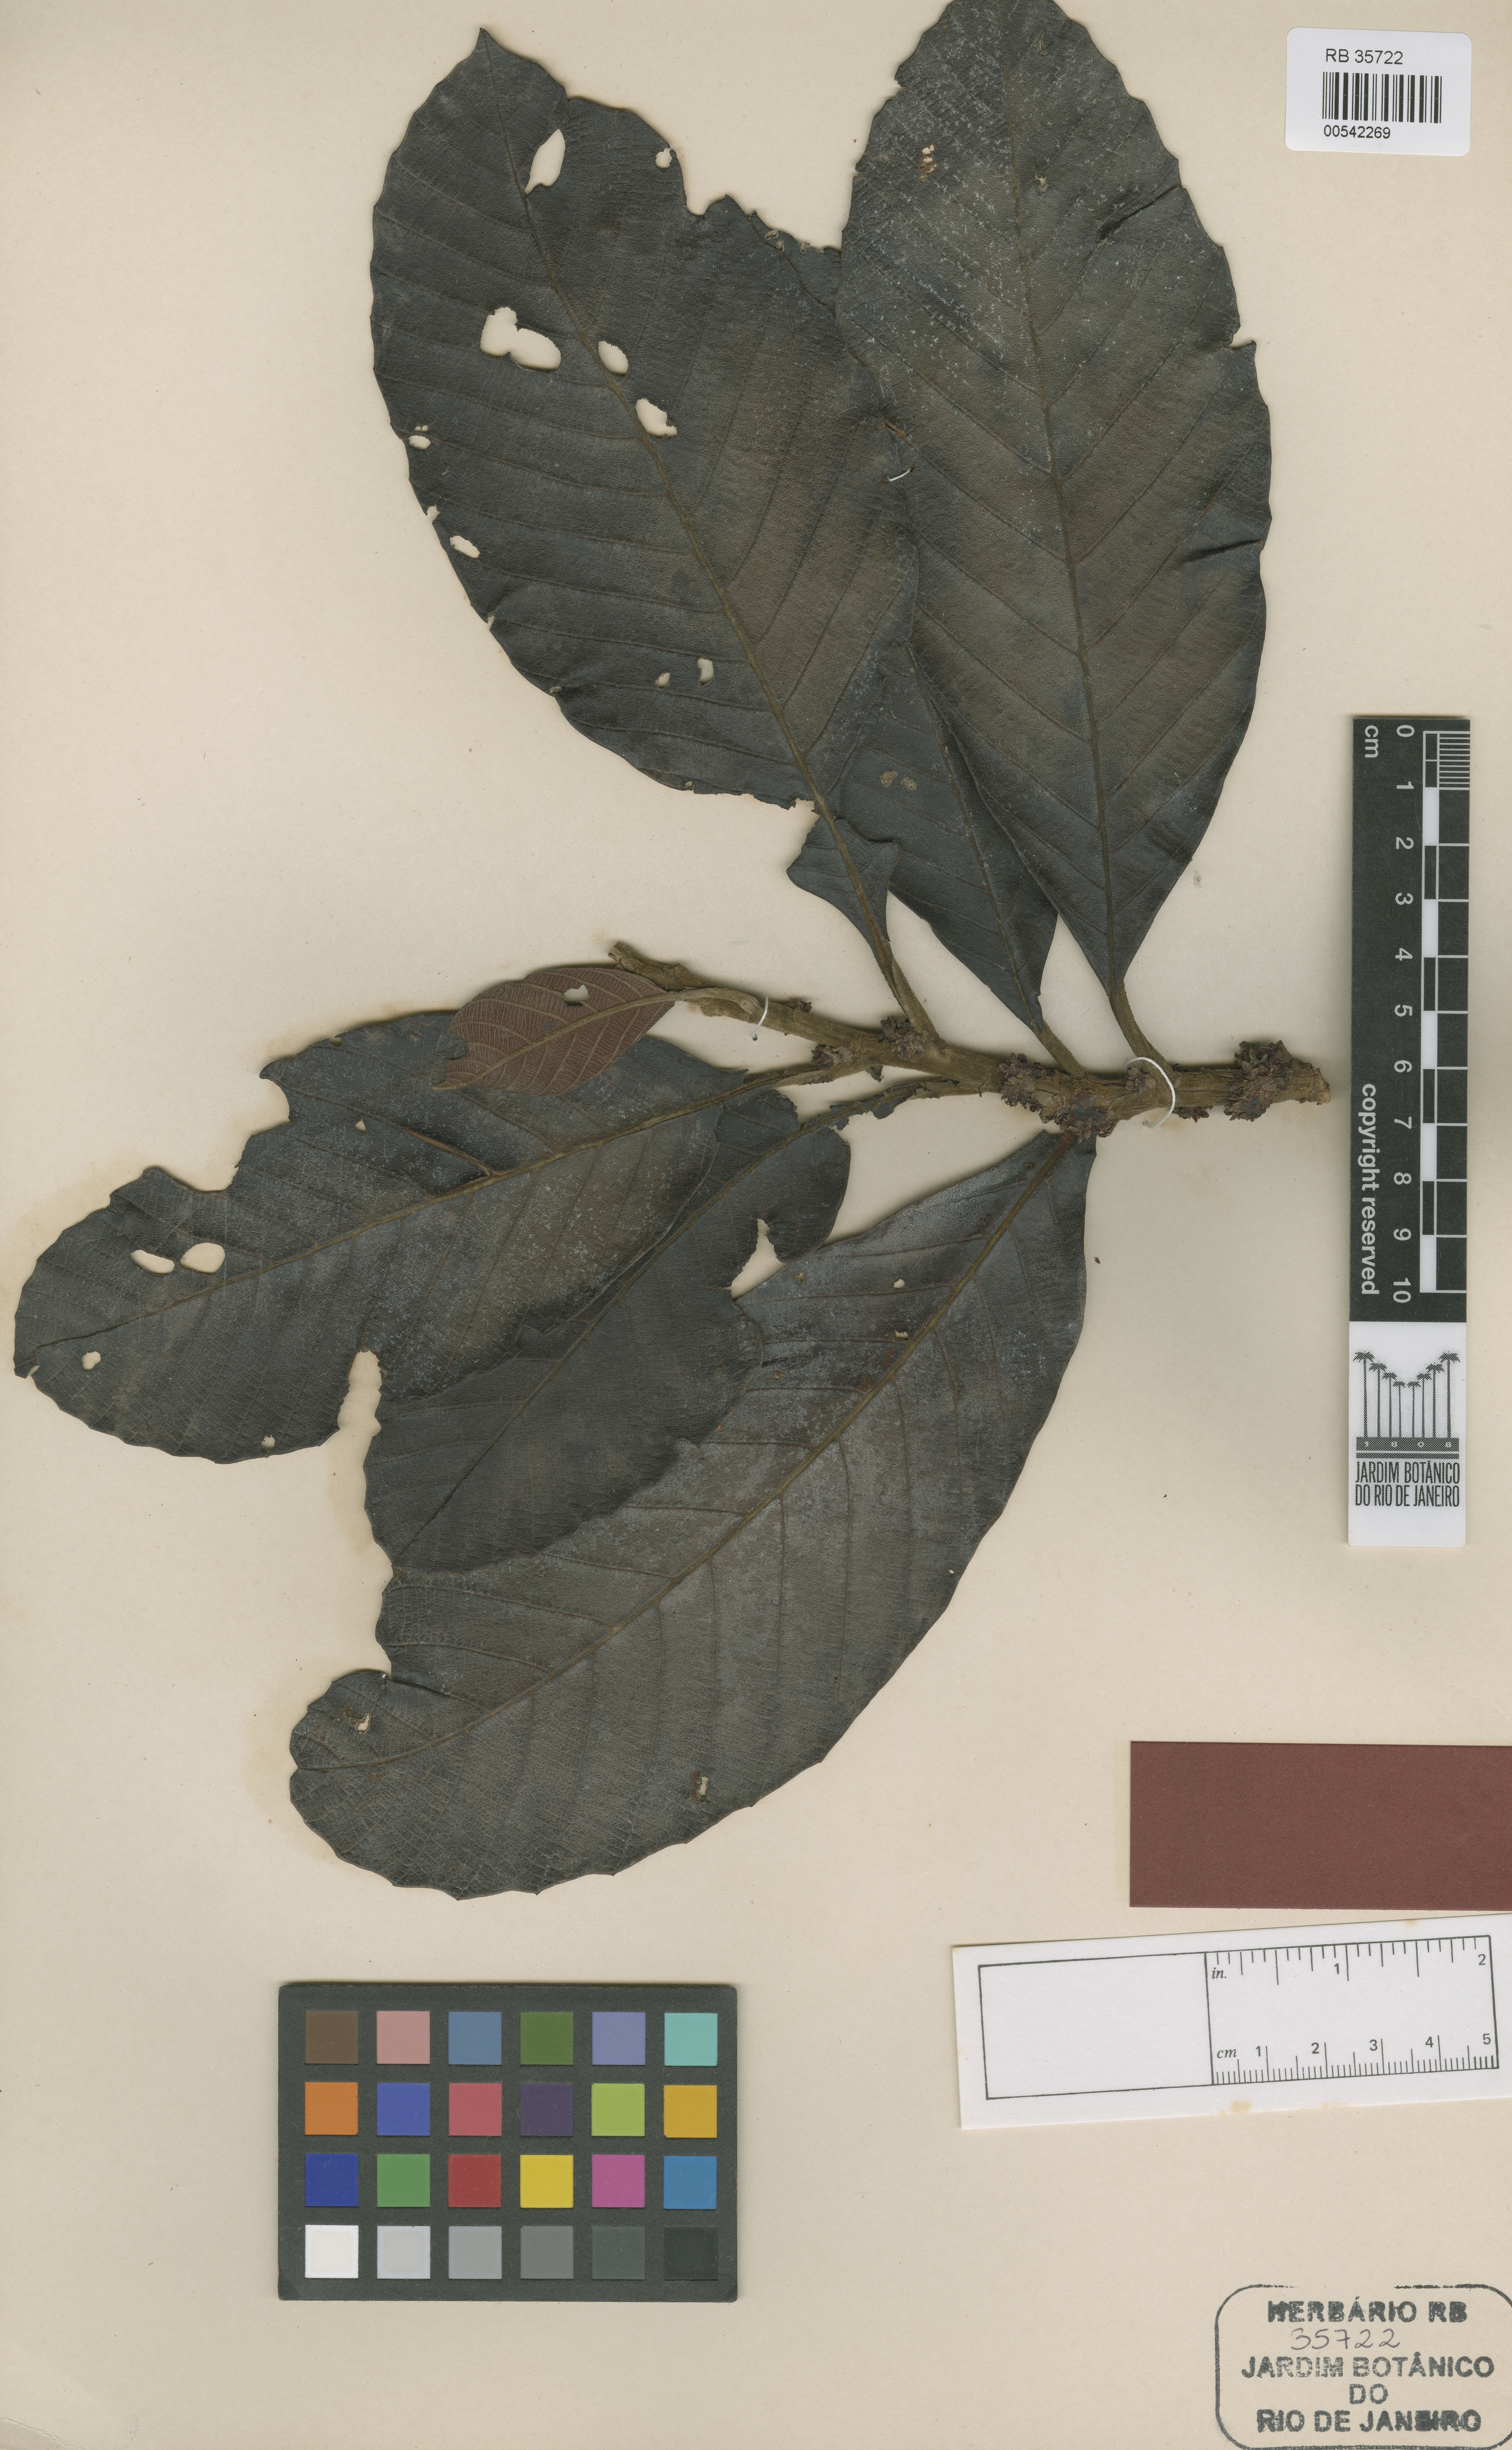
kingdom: Plantae
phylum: Tracheophyta
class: Magnoliopsida
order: Dilleniales
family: Dilleniaceae
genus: Doliocarpus
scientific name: Doliocarpus amazonicus
